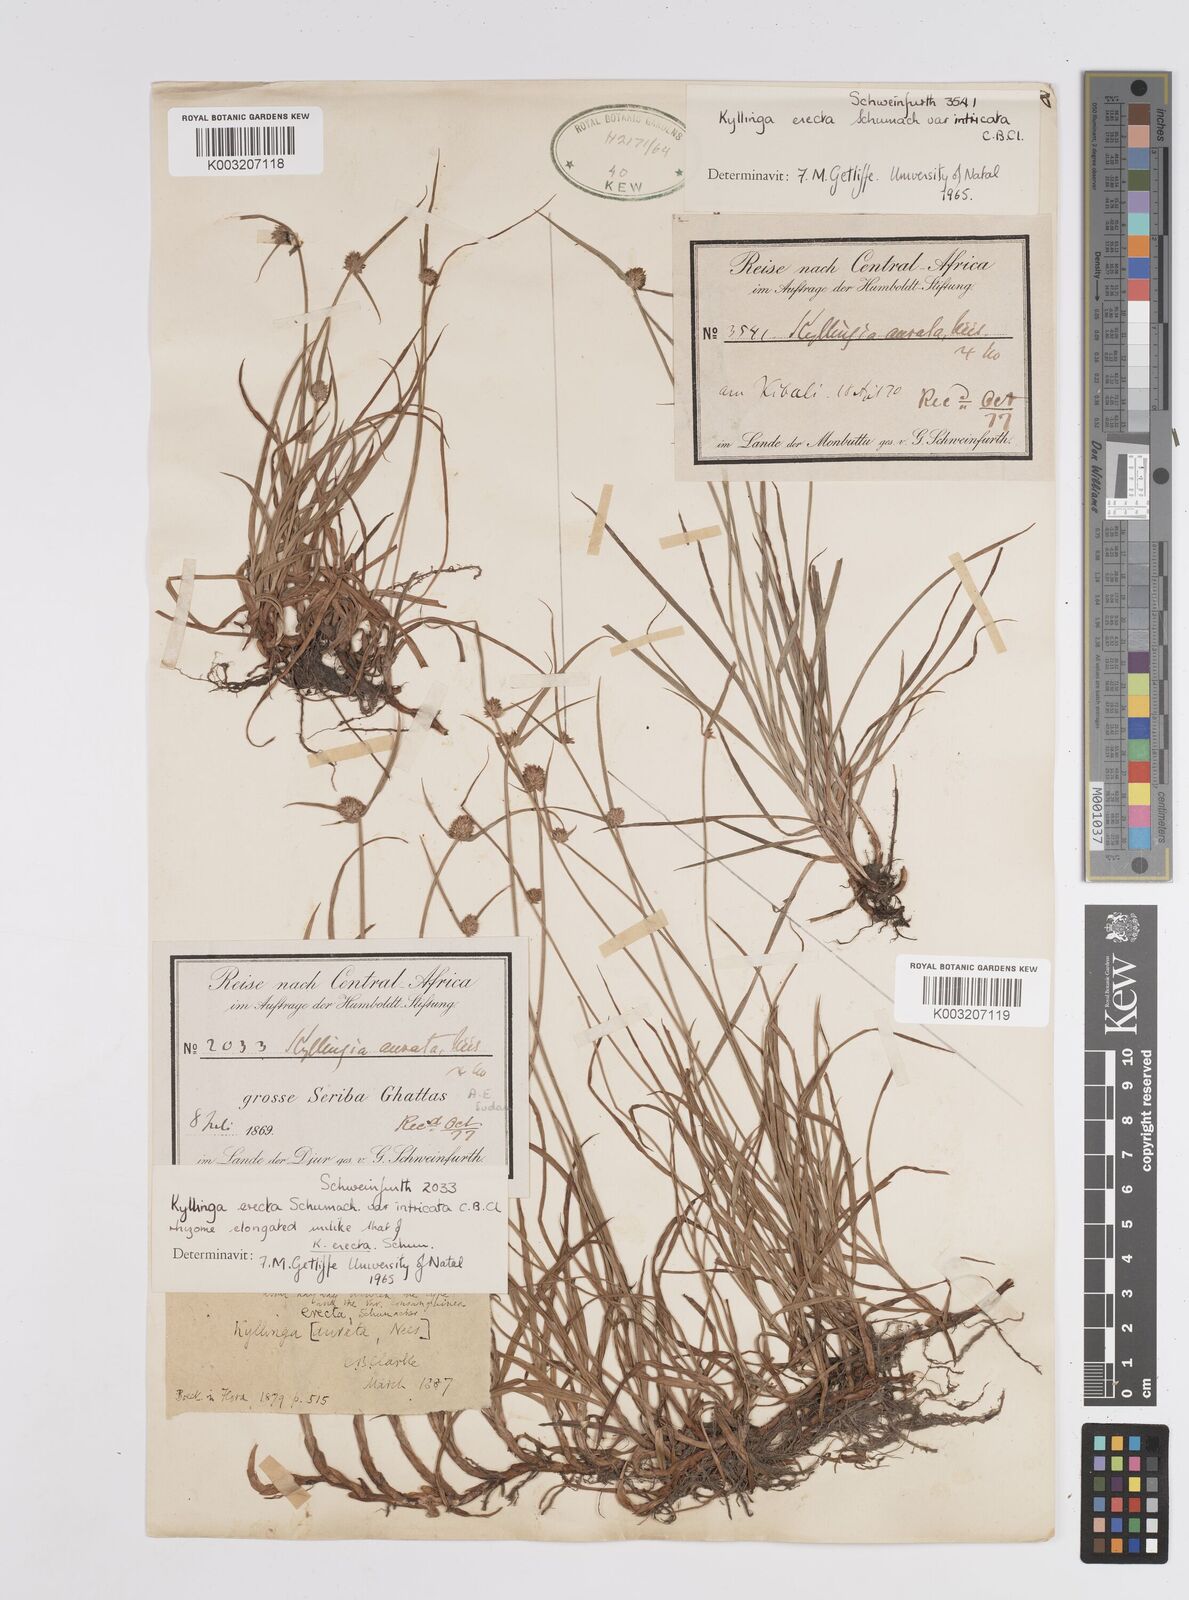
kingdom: Plantae
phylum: Tracheophyta
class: Liliopsida
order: Poales
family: Cyperaceae
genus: Cyperus
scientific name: Cyperus
